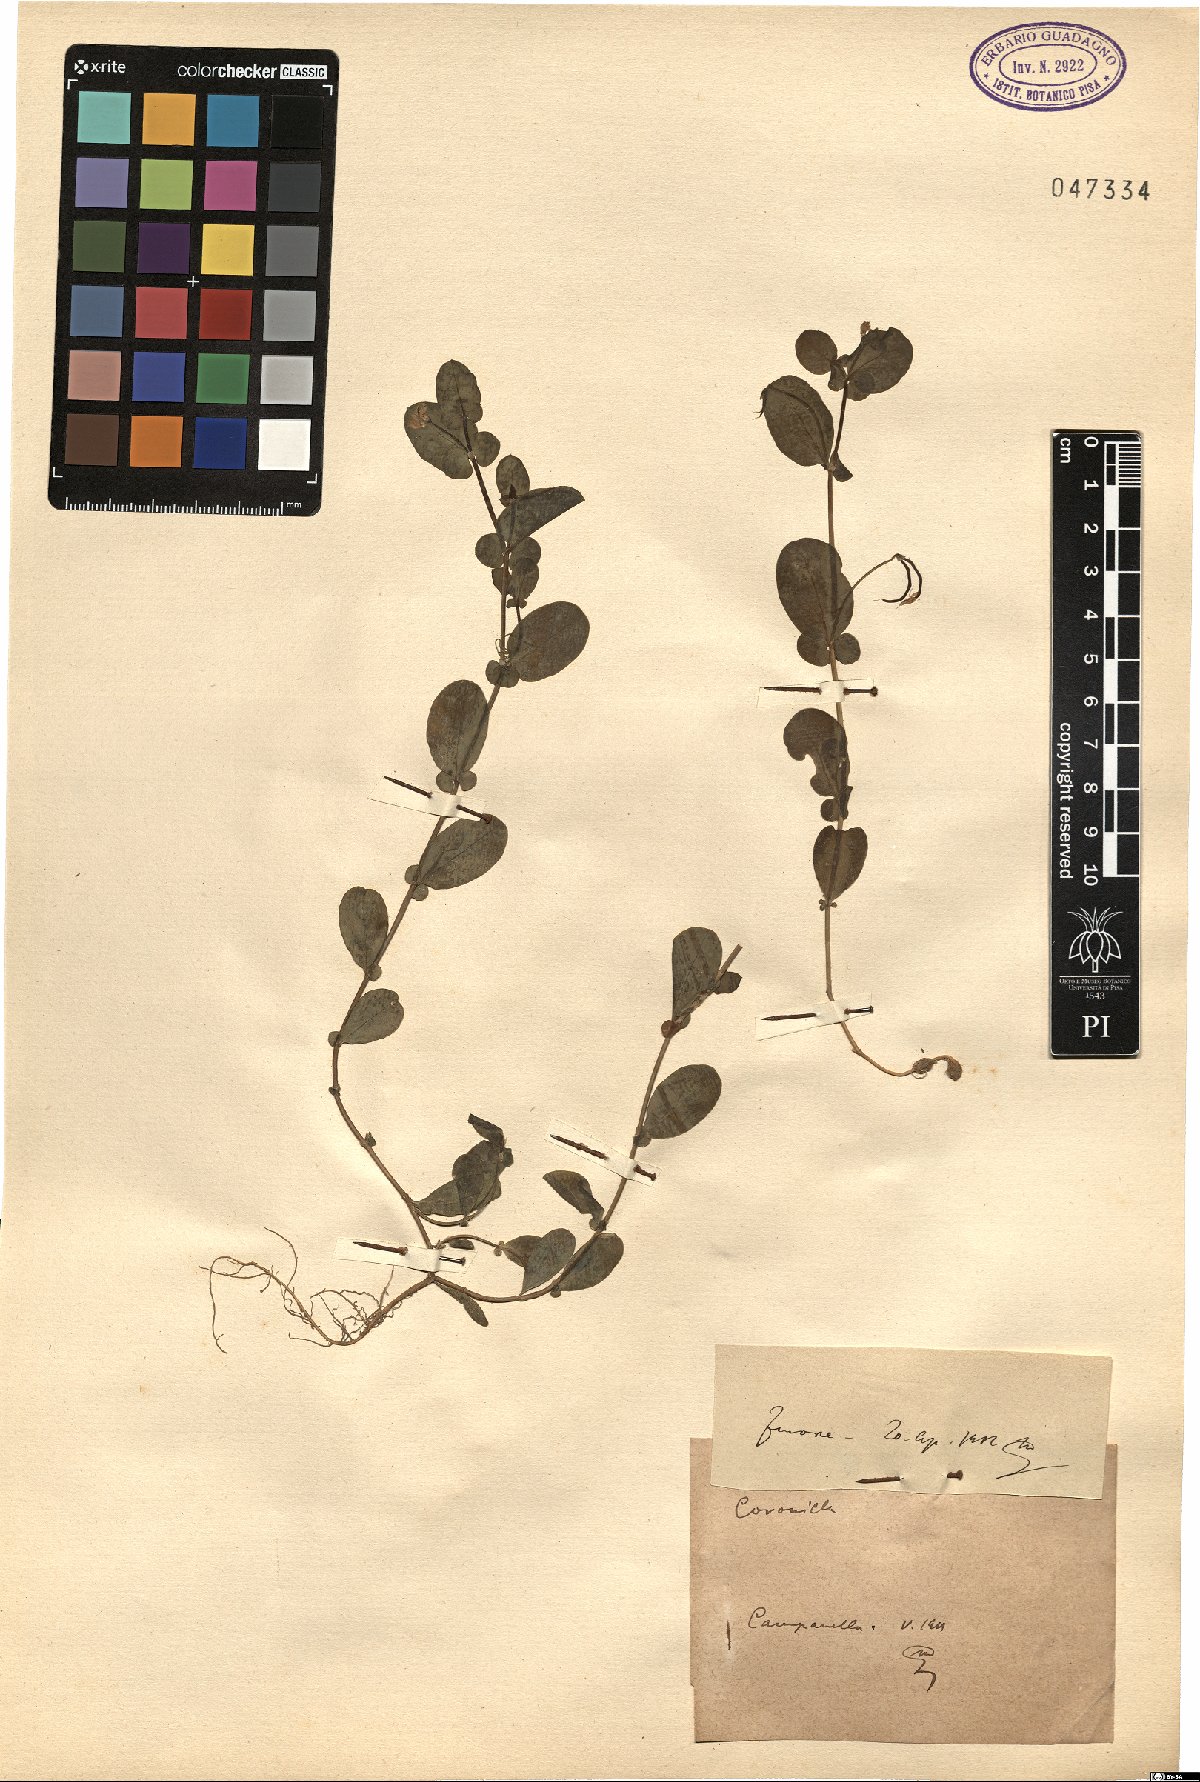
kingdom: Plantae
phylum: Tracheophyta
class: Magnoliopsida
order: Fabales
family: Fabaceae
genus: Coronilla
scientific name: Coronilla
